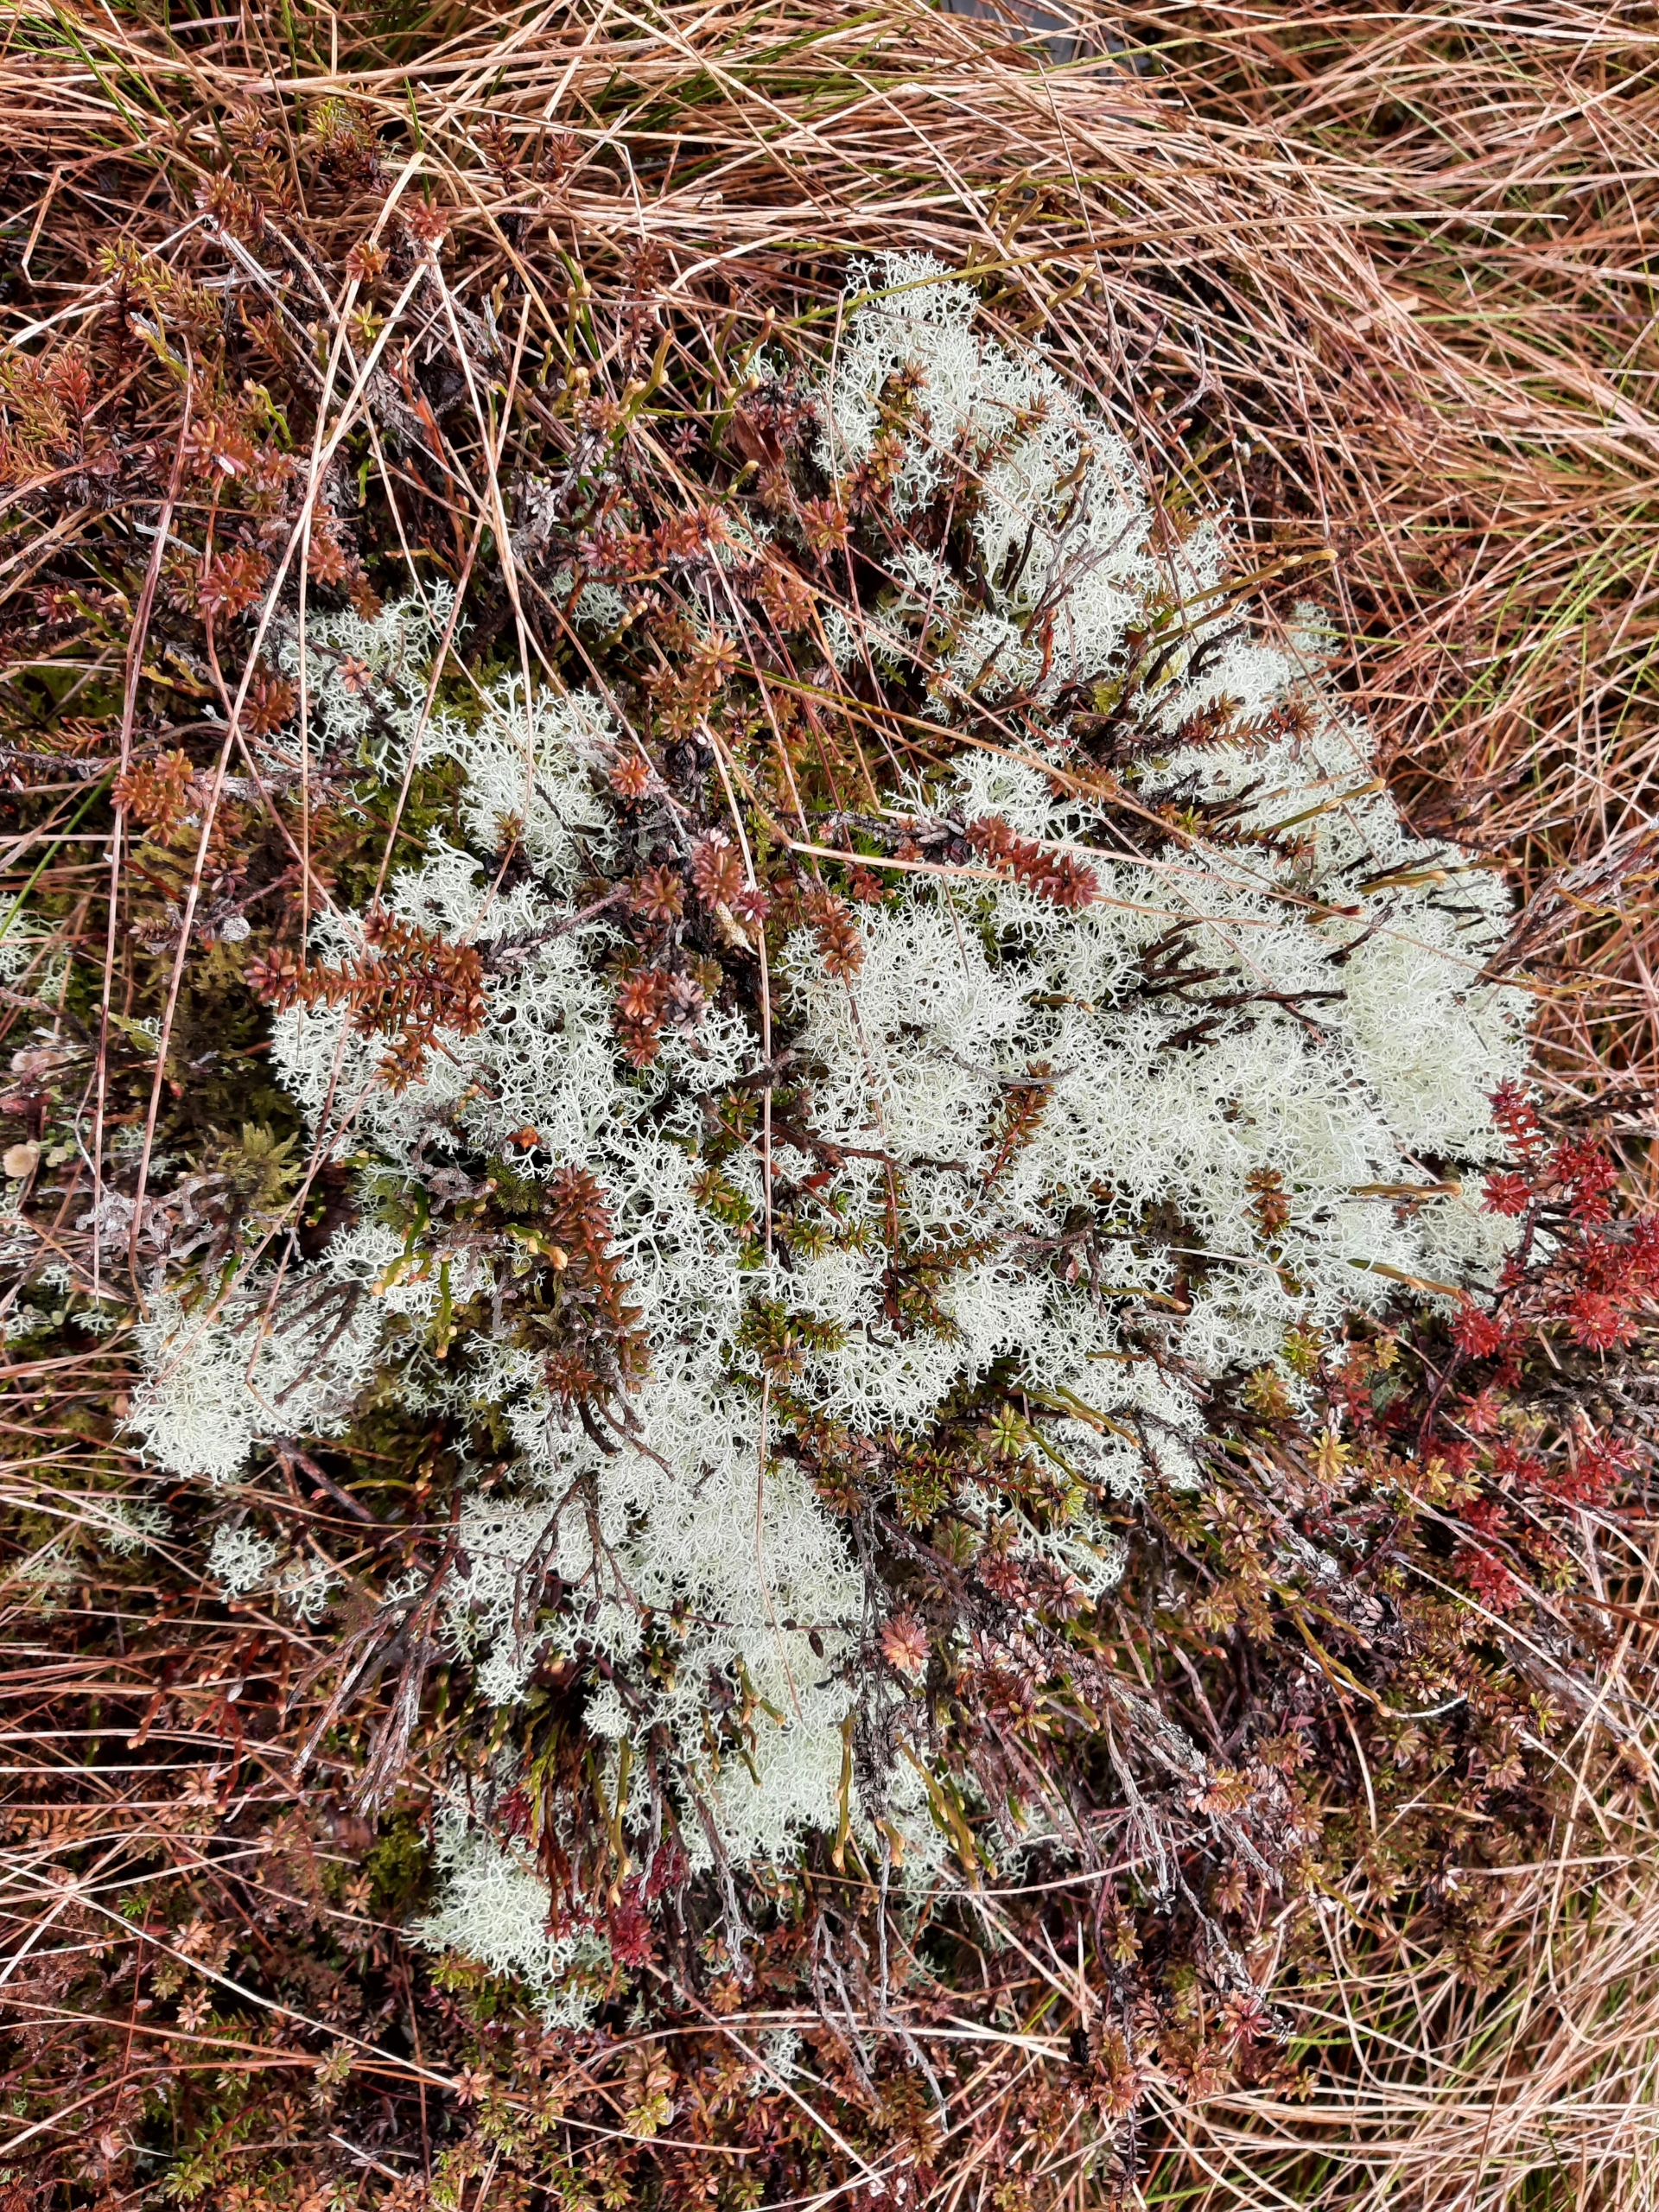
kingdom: Fungi
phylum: Ascomycota
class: Lecanoromycetes
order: Lecanorales
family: Cladoniaceae
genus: Cladonia
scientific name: Cladonia portentosa
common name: Hede-rensdyrlav
